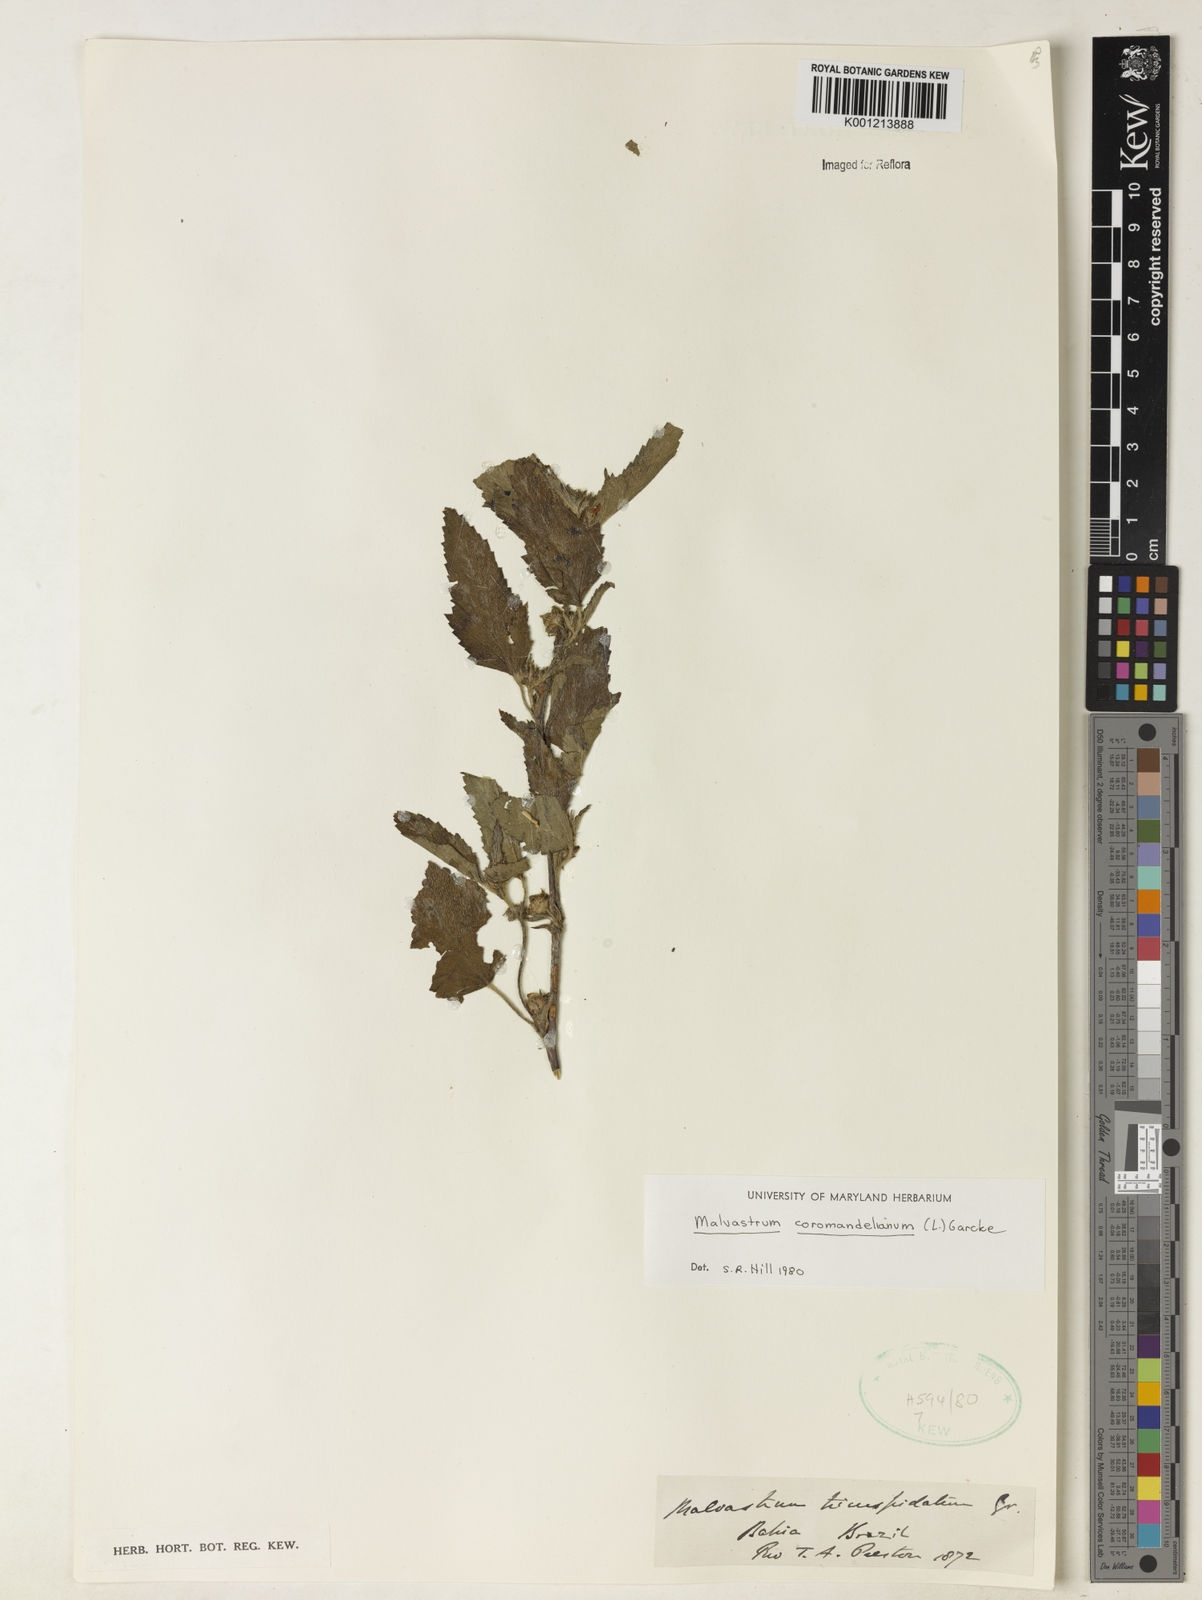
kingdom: Plantae
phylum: Tracheophyta
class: Magnoliopsida
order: Malvales
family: Malvaceae
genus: Malvastrum
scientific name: Malvastrum coromandelianum
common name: Threelobe false mallow
